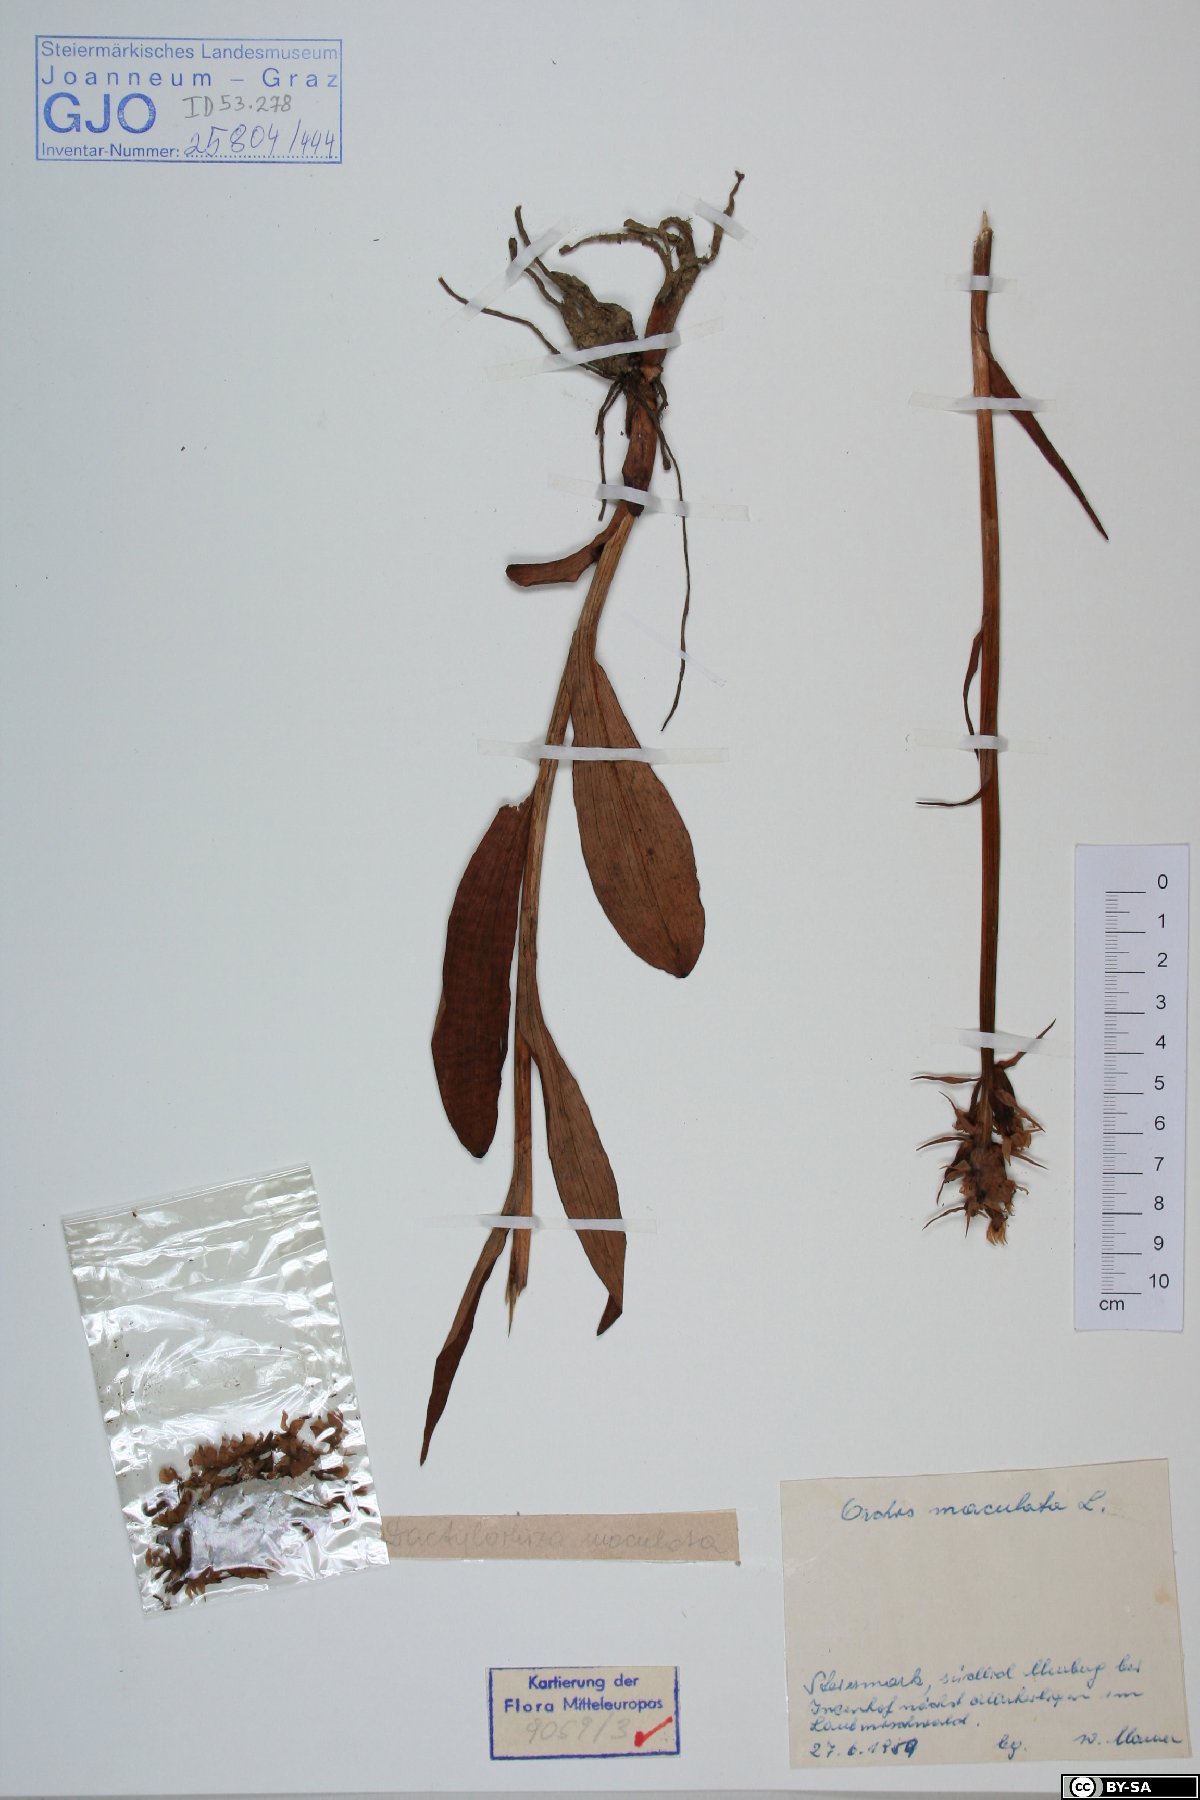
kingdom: Plantae
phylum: Tracheophyta
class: Liliopsida
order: Asparagales
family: Orchidaceae
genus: Dactylorhiza
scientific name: Dactylorhiza maculata
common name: Heath spotted-orchid
